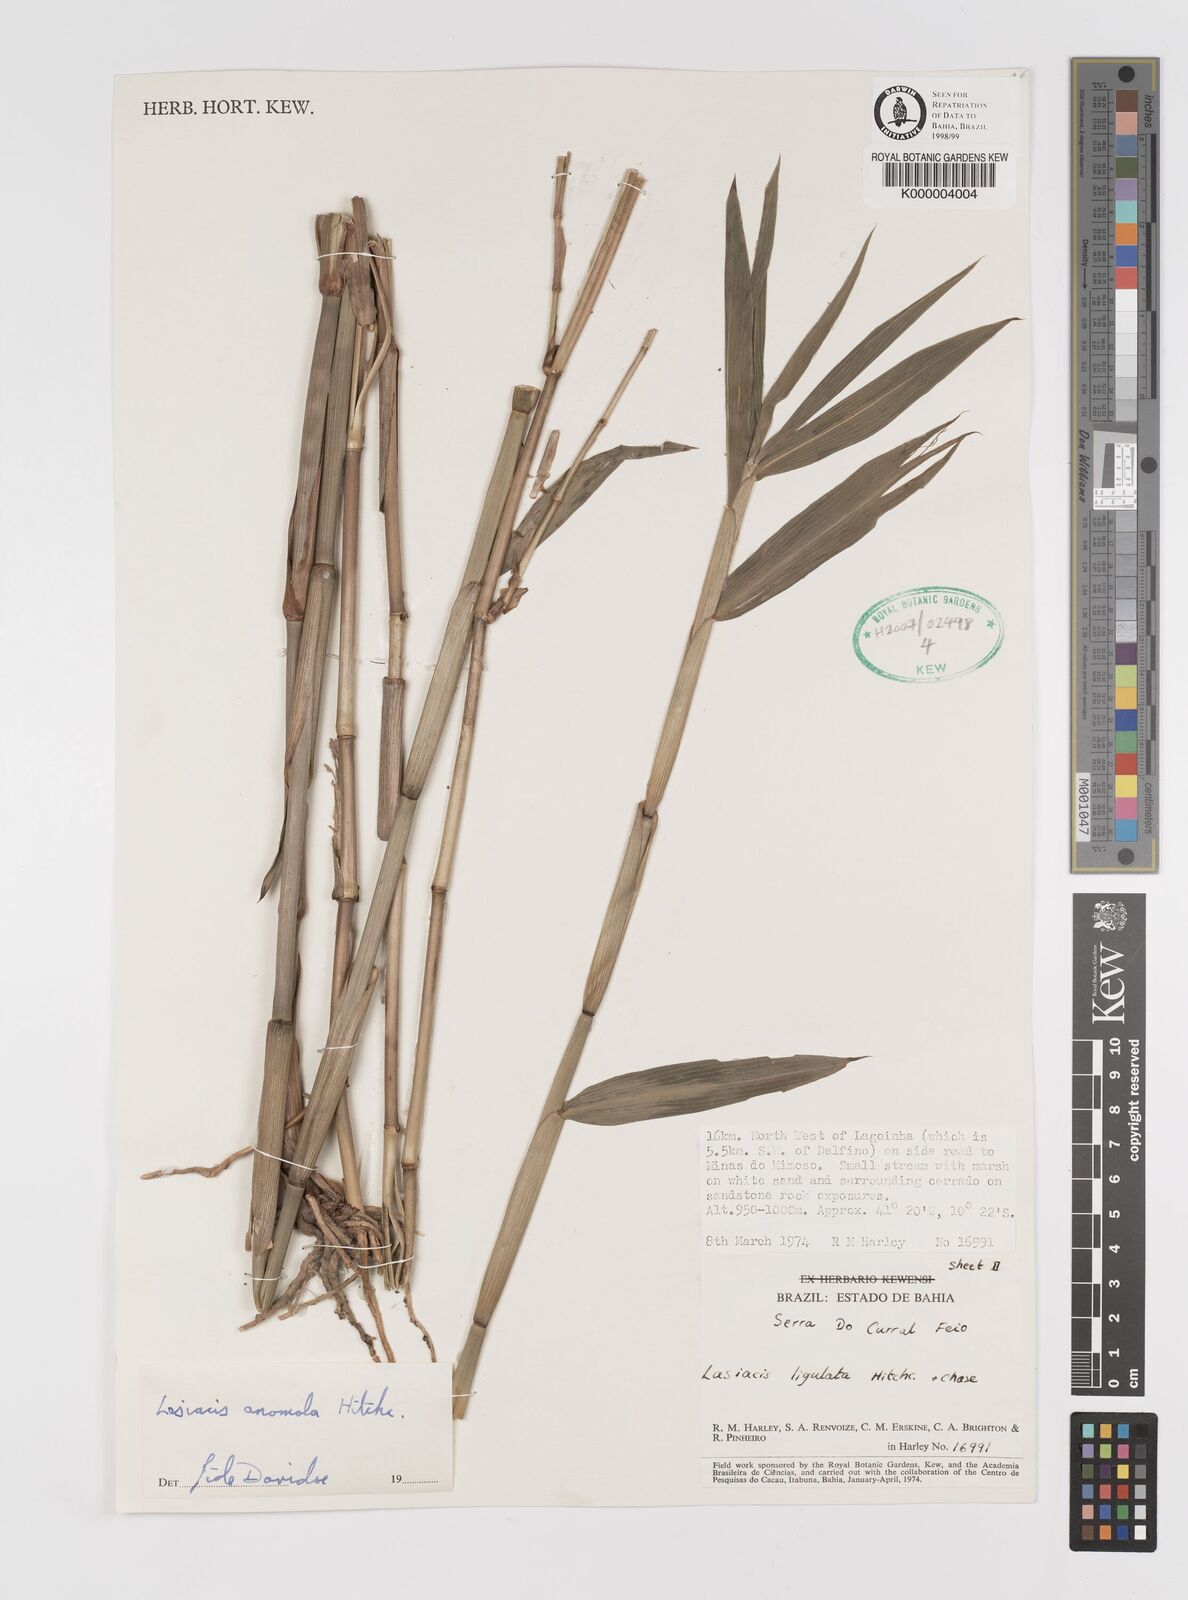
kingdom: Plantae
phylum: Tracheophyta
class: Liliopsida
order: Poales
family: Poaceae
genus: Lasiacis
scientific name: Lasiacis anomala
